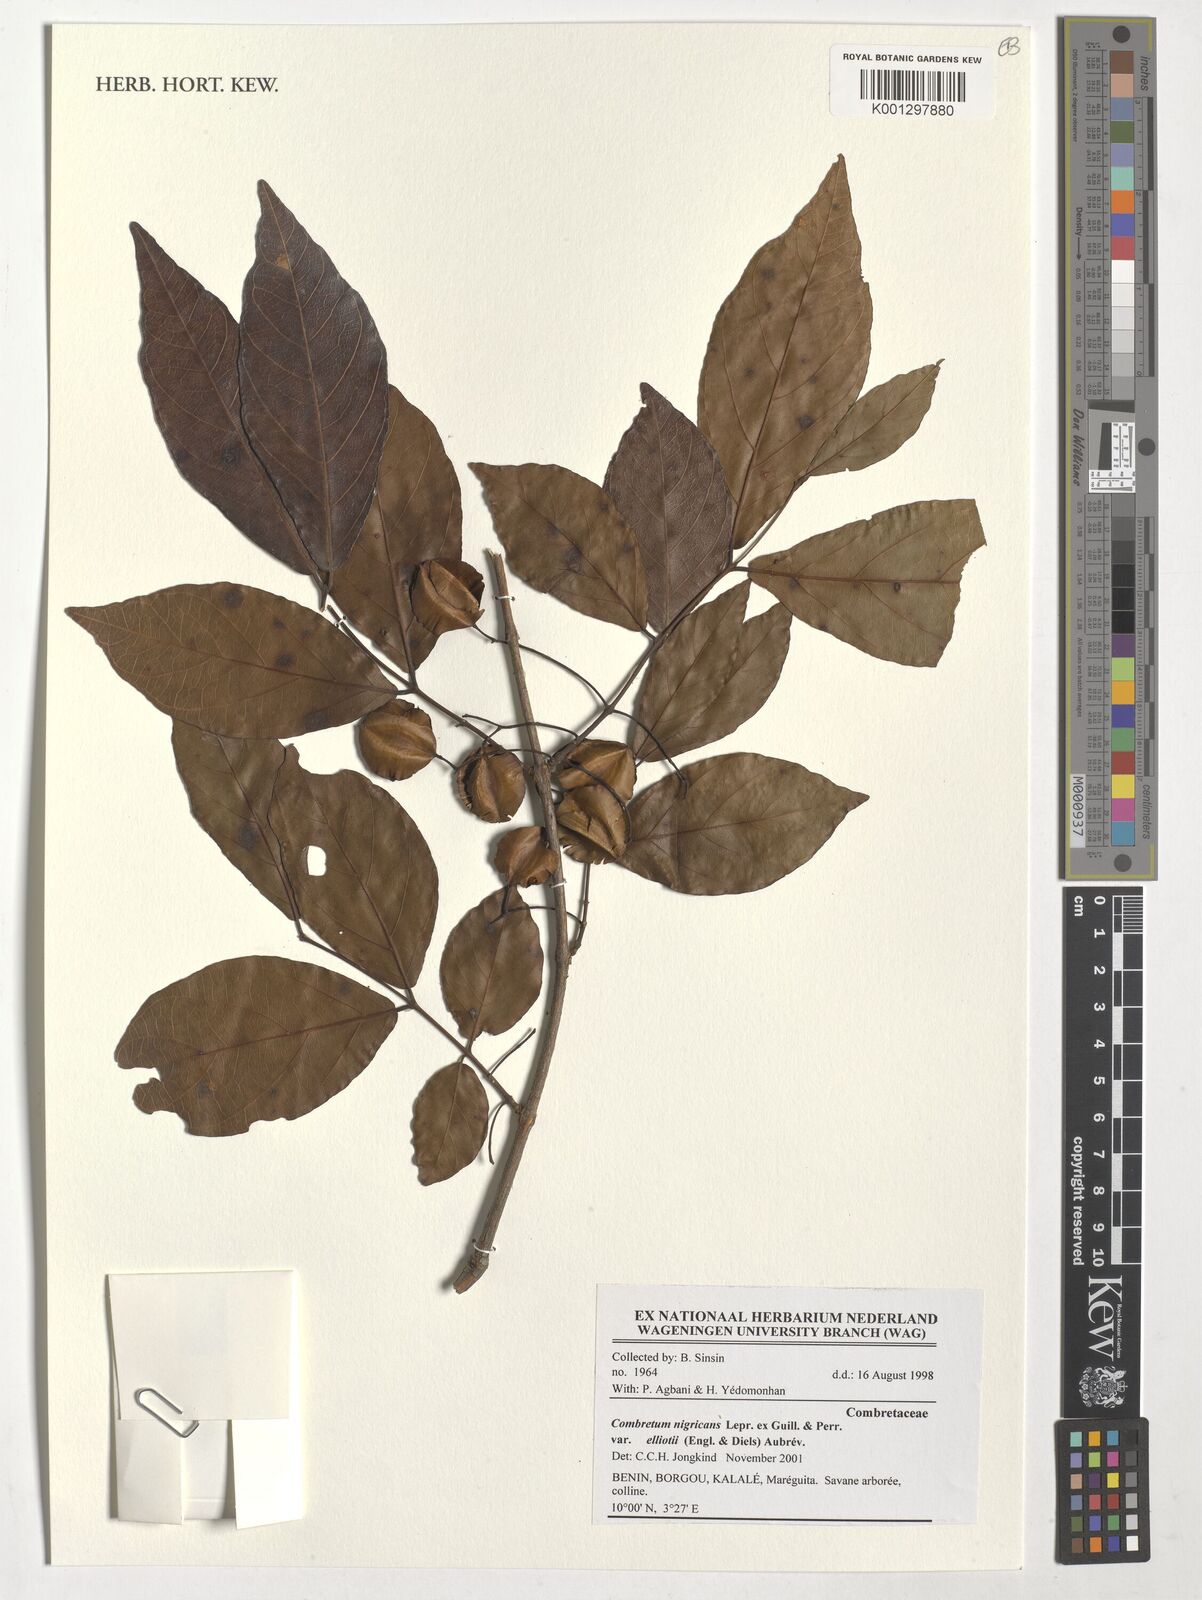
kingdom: Plantae
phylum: Tracheophyta
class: Magnoliopsida
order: Myrtales
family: Combretaceae
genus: Combretum
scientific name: Combretum nigricans
